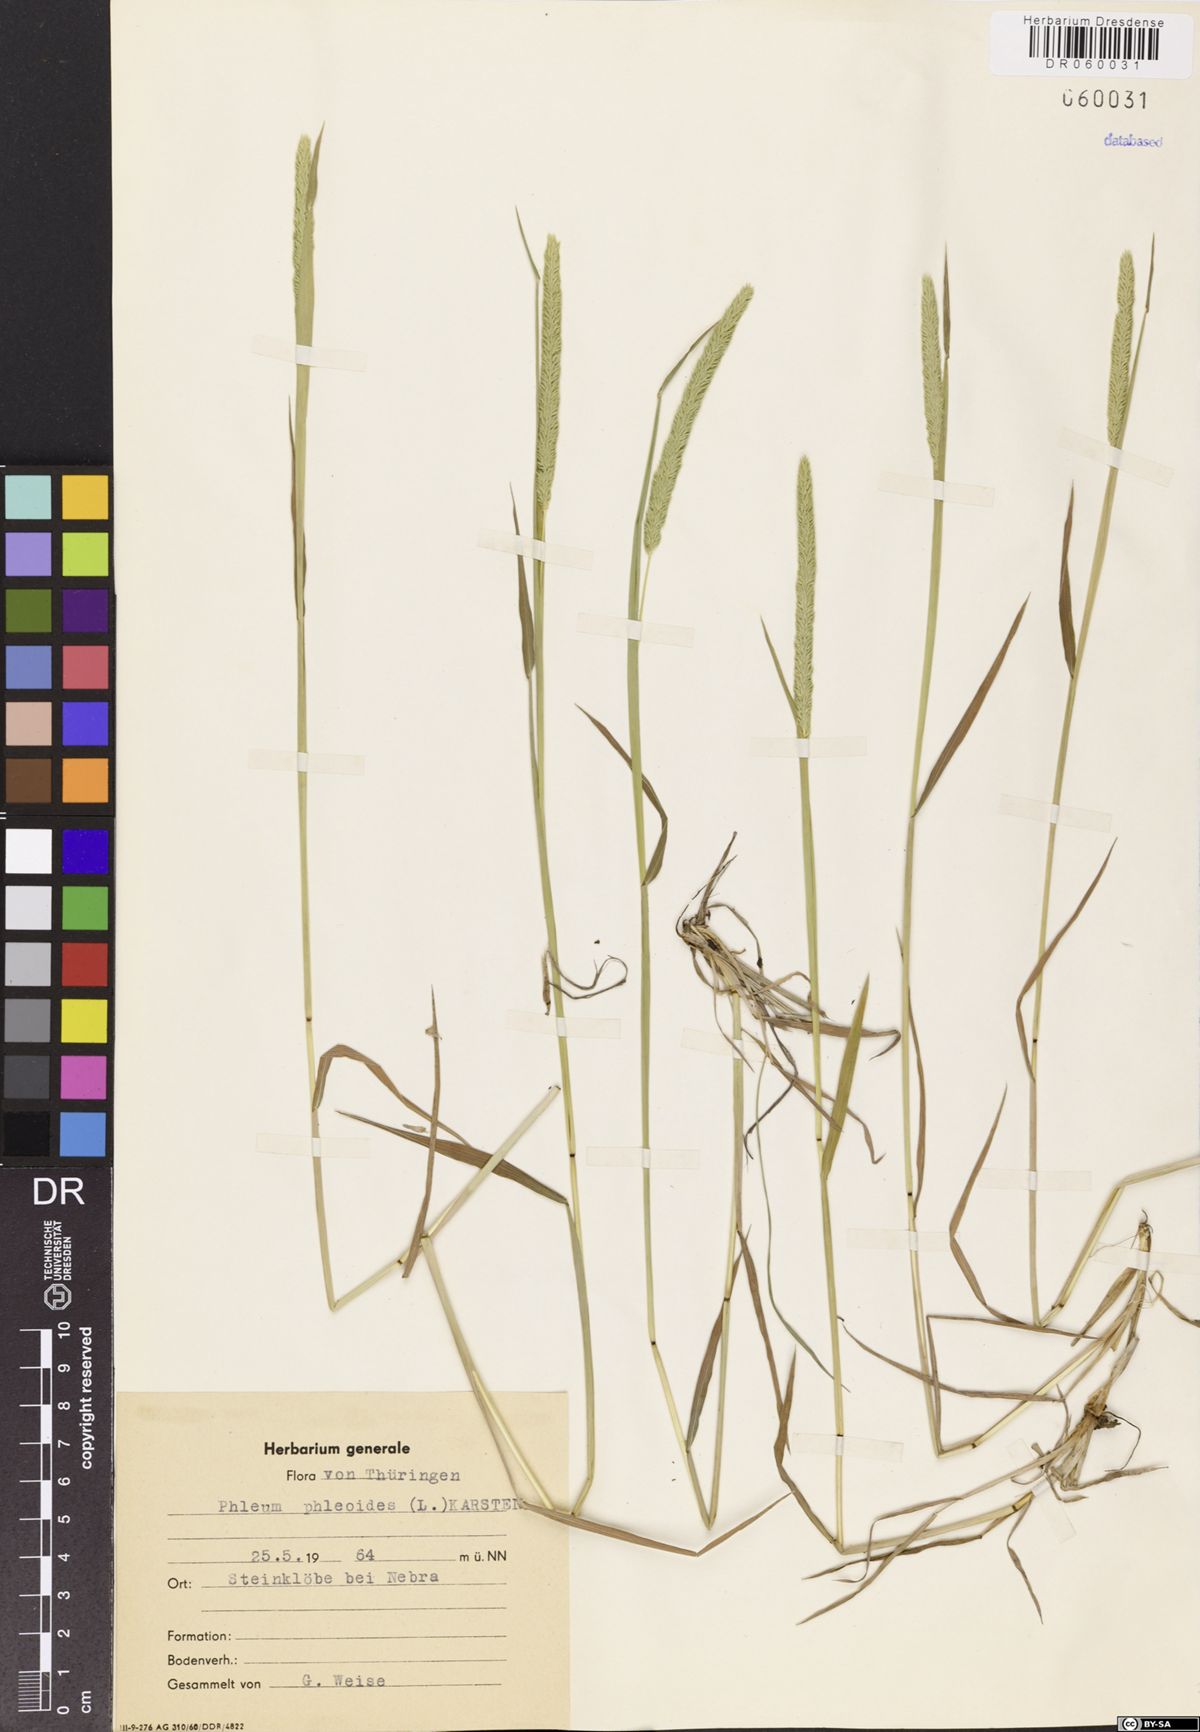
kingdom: Plantae
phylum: Tracheophyta
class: Liliopsida
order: Poales
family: Poaceae
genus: Phleum
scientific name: Phleum phleoides
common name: Purple-stem cat's-tail
